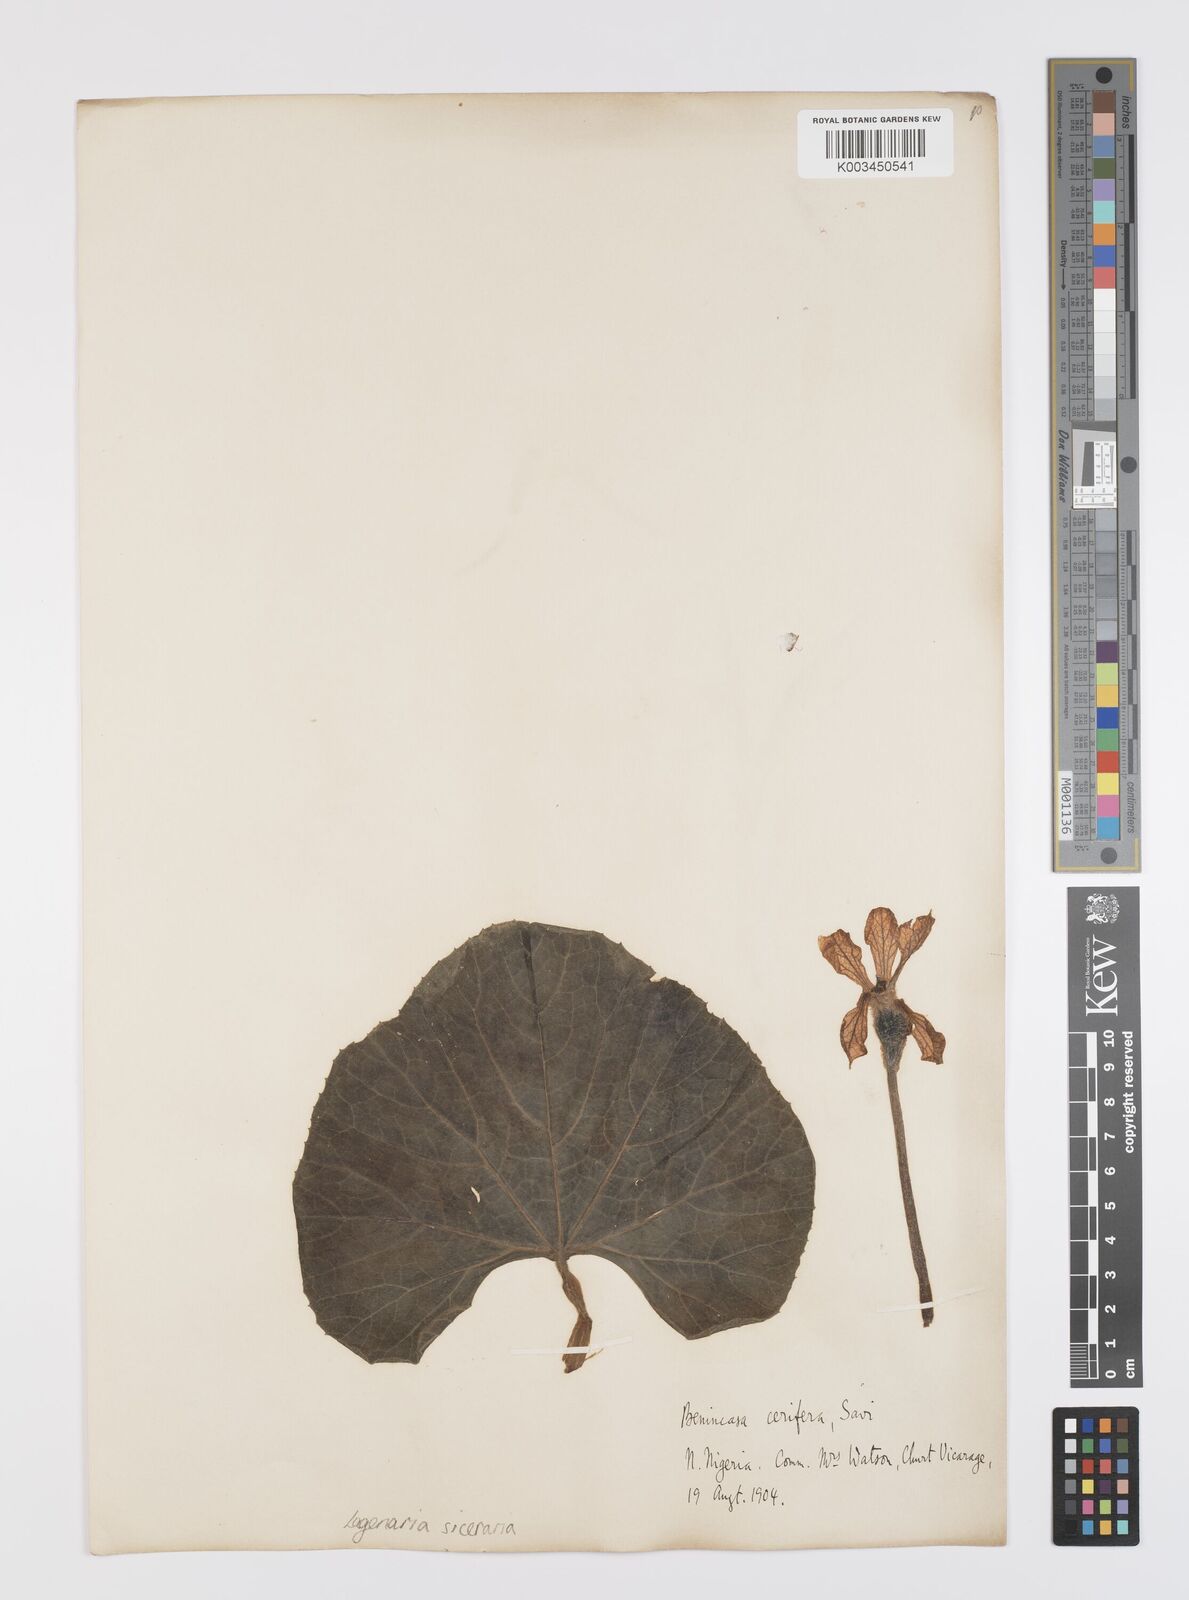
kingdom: Plantae
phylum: Tracheophyta
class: Magnoliopsida
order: Cucurbitales
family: Cucurbitaceae
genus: Lagenaria
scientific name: Lagenaria siceraria
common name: Bottle gourd
